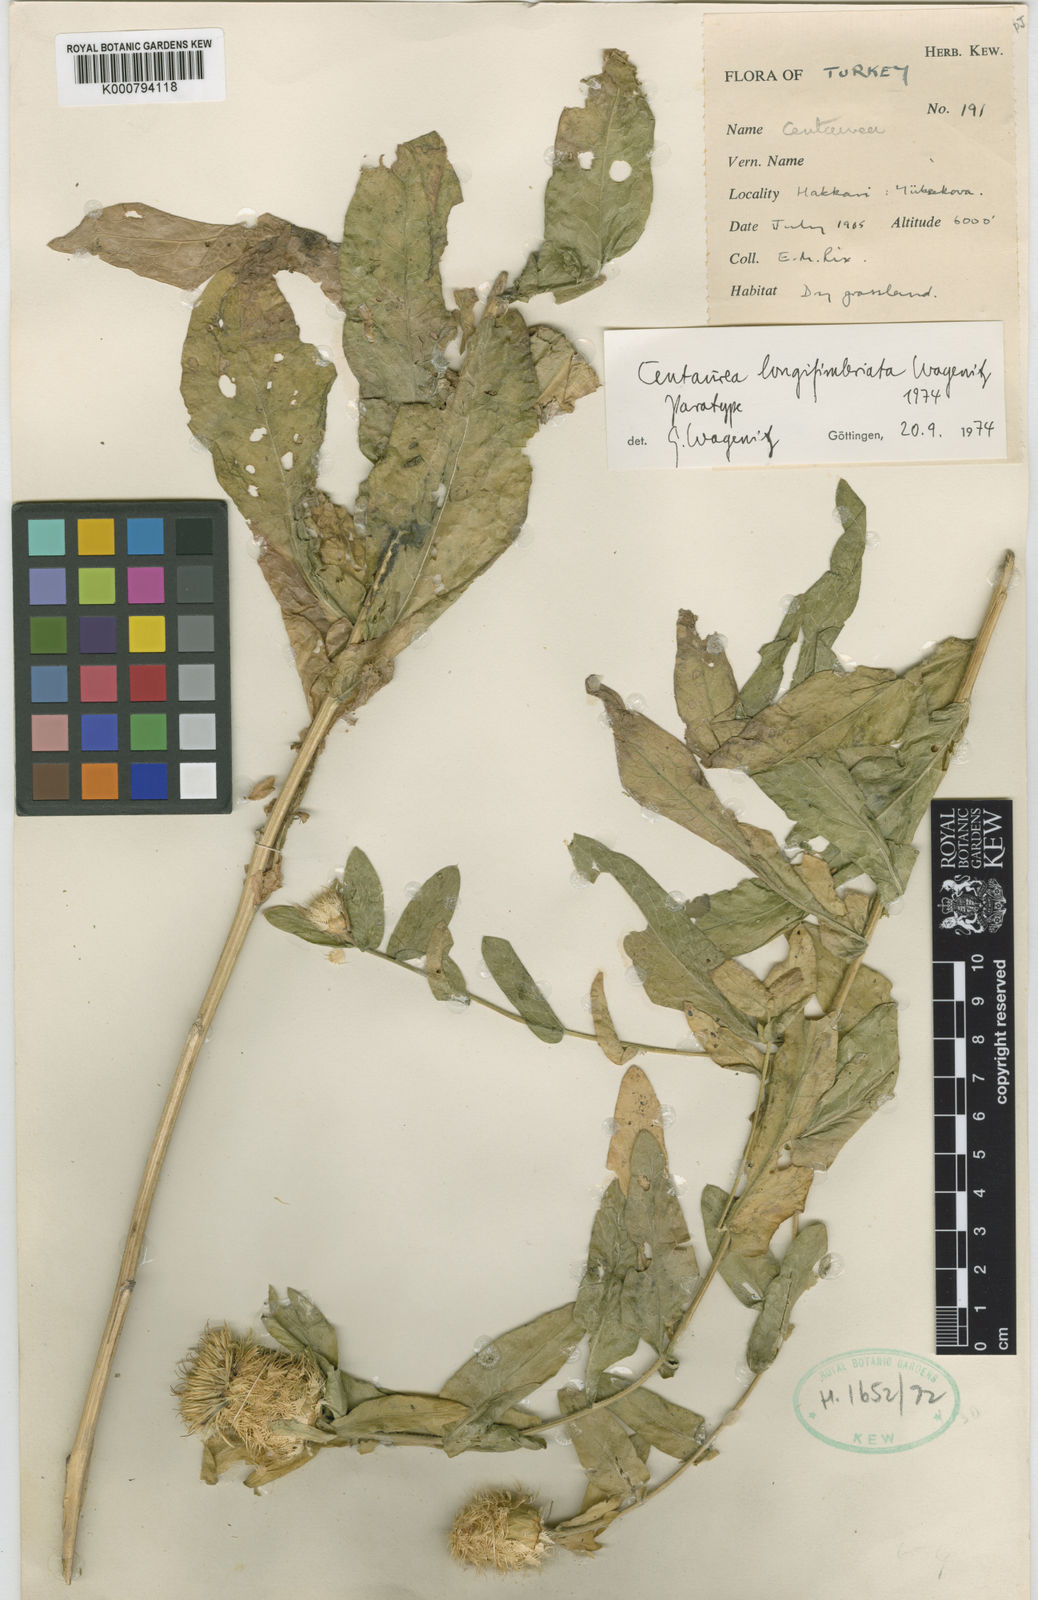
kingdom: Plantae
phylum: Tracheophyta
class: Magnoliopsida
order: Asterales
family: Asteraceae
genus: Centaurea
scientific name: Centaurea longifimbriata
